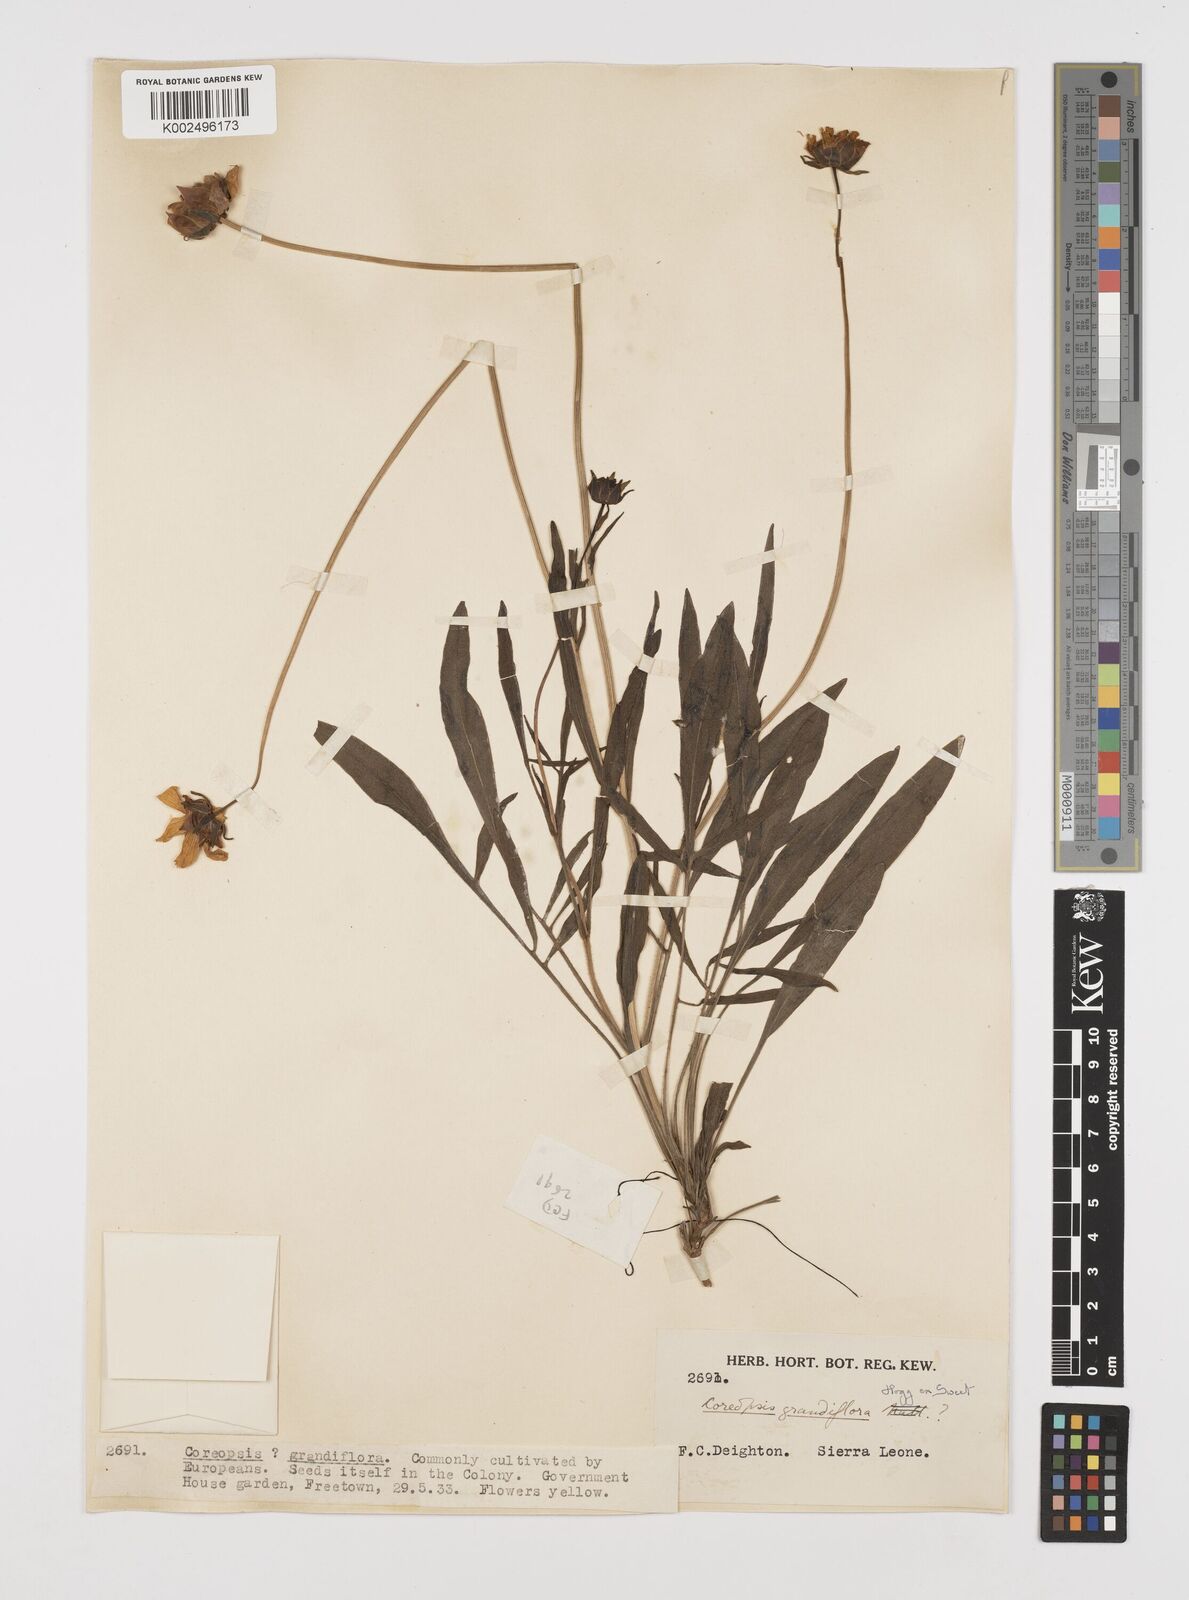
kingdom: Plantae
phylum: Tracheophyta
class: Magnoliopsida
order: Asterales
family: Asteraceae
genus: Coreopsis
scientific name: Coreopsis grandiflora
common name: Large-flowered tickseed
